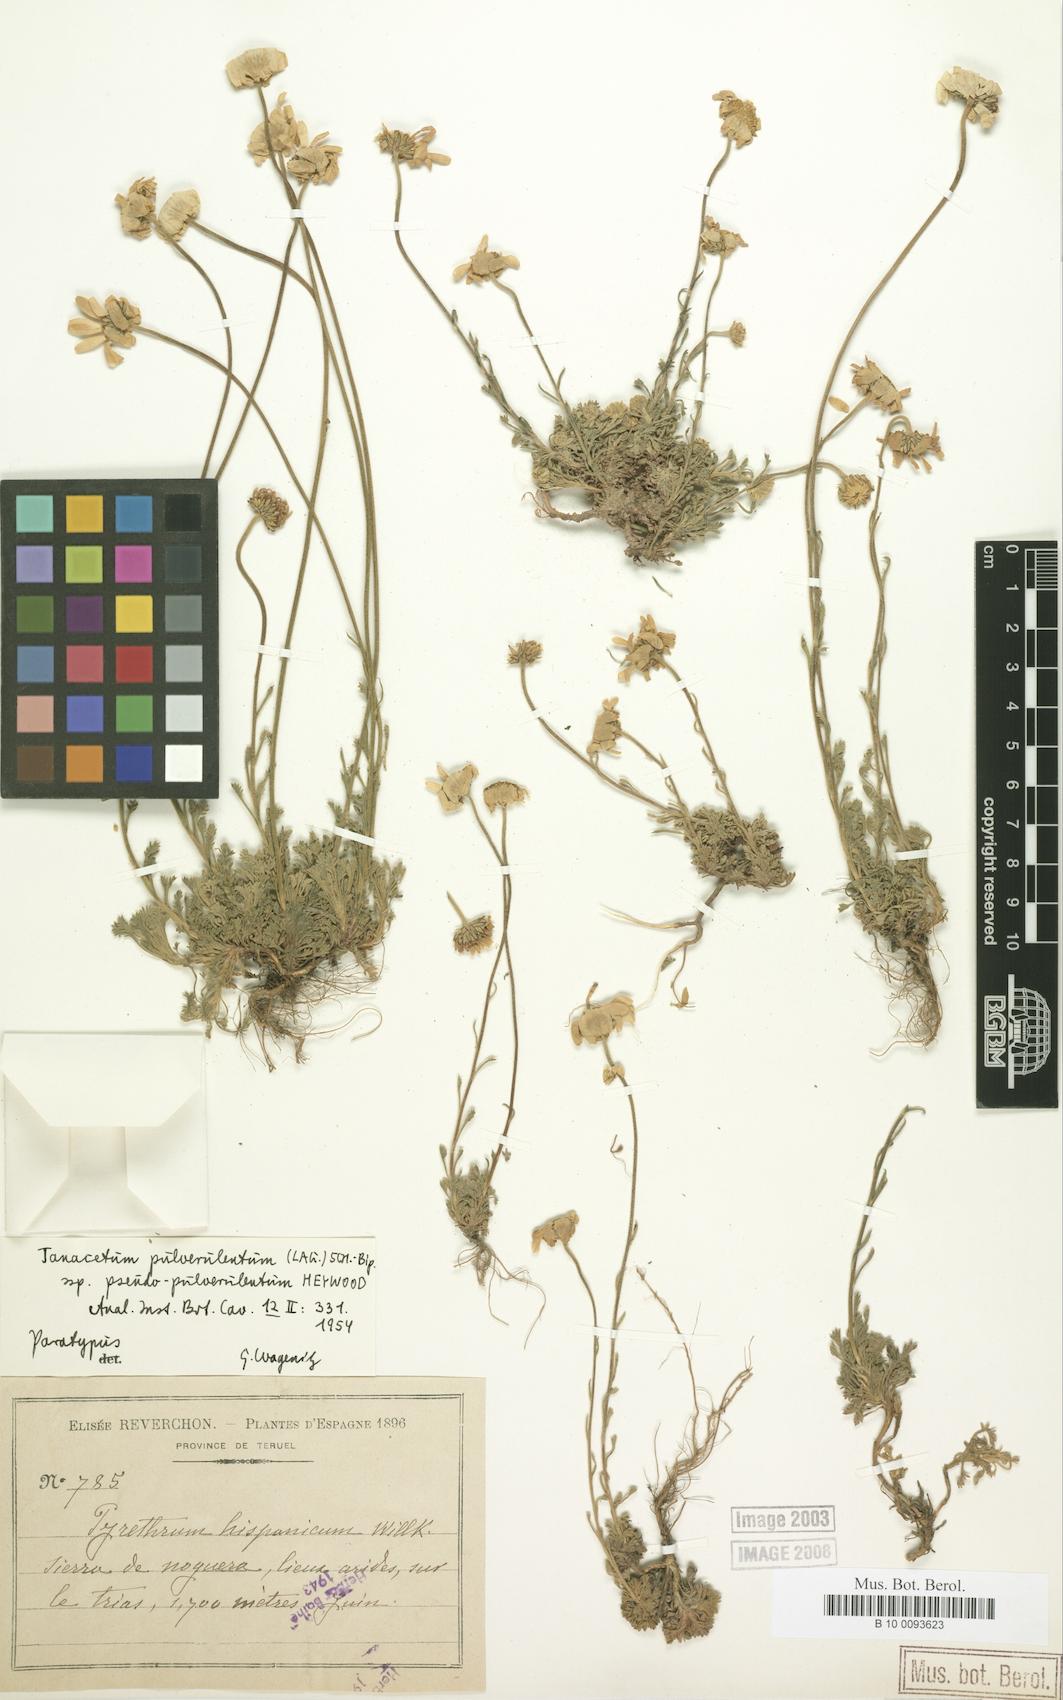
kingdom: Plantae
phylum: Tracheophyta
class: Magnoliopsida
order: Asterales
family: Asteraceae
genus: Leucanthemopsis
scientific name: Leucanthemopsis heywoodii
